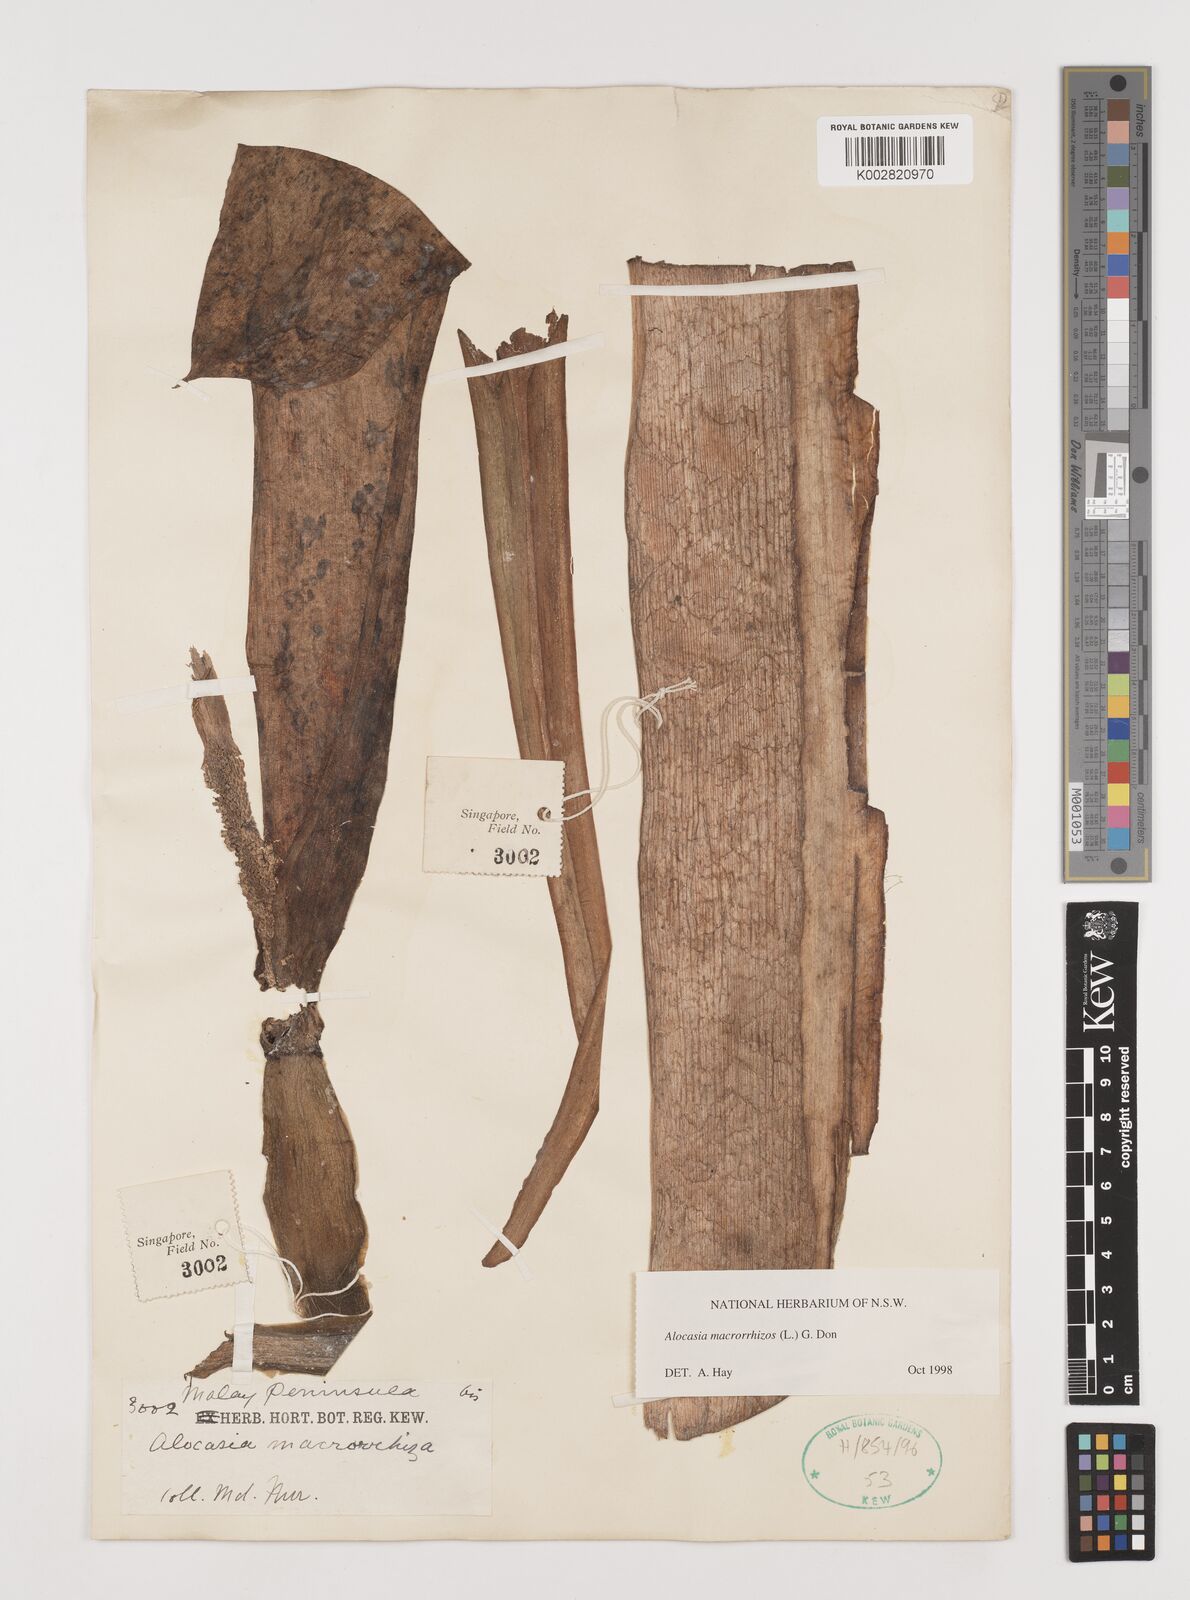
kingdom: Plantae
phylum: Tracheophyta
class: Liliopsida
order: Alismatales
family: Araceae
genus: Alocasia
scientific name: Alocasia macrorrhizos
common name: Giant taro
